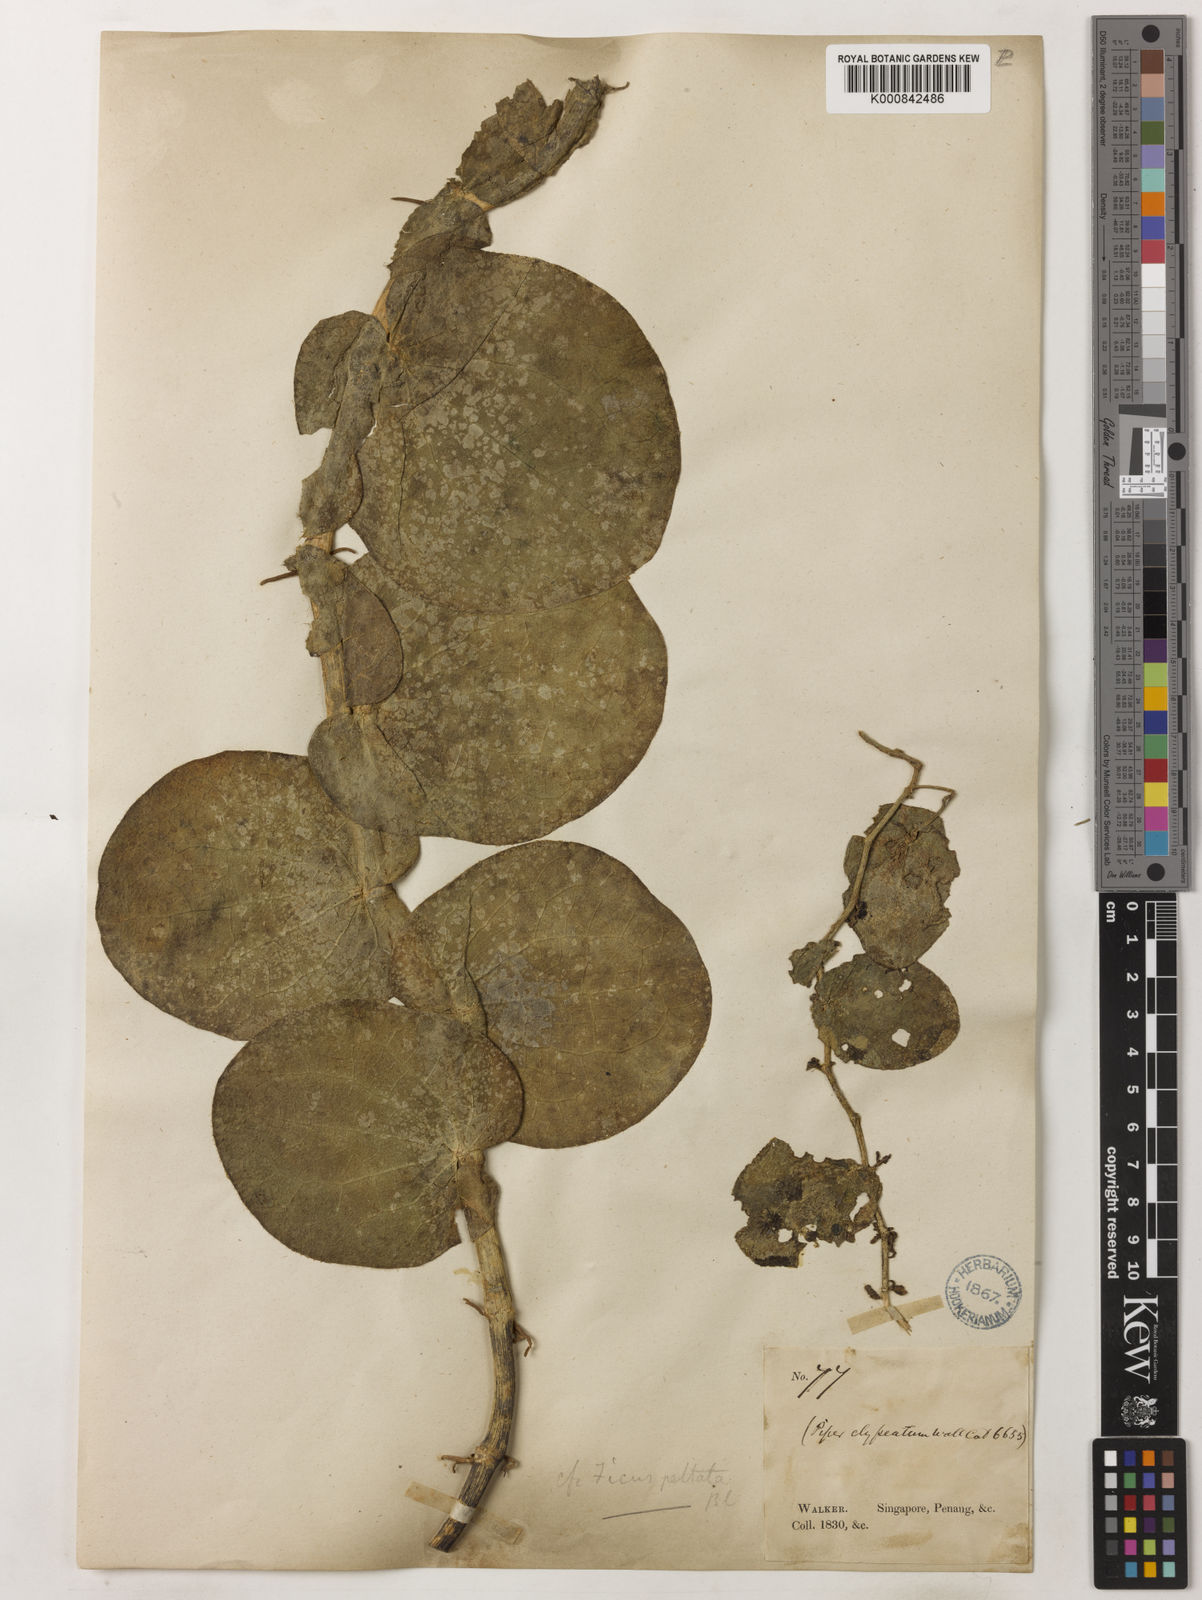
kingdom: Plantae
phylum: Tracheophyta
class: Magnoliopsida
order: Piperales
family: Piperaceae
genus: Piper
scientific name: Piper
